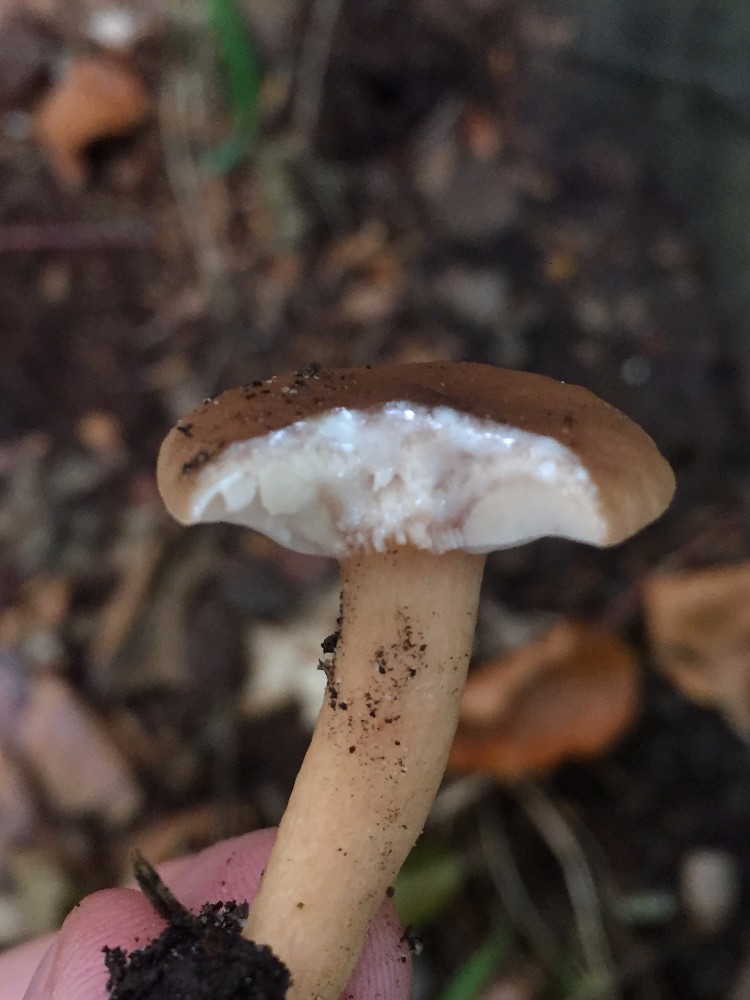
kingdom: Fungi
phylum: Basidiomycota
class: Agaricomycetes
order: Russulales
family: Russulaceae
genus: Lactarius
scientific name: Lactarius subdulcis
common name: sødlig mælkehat
